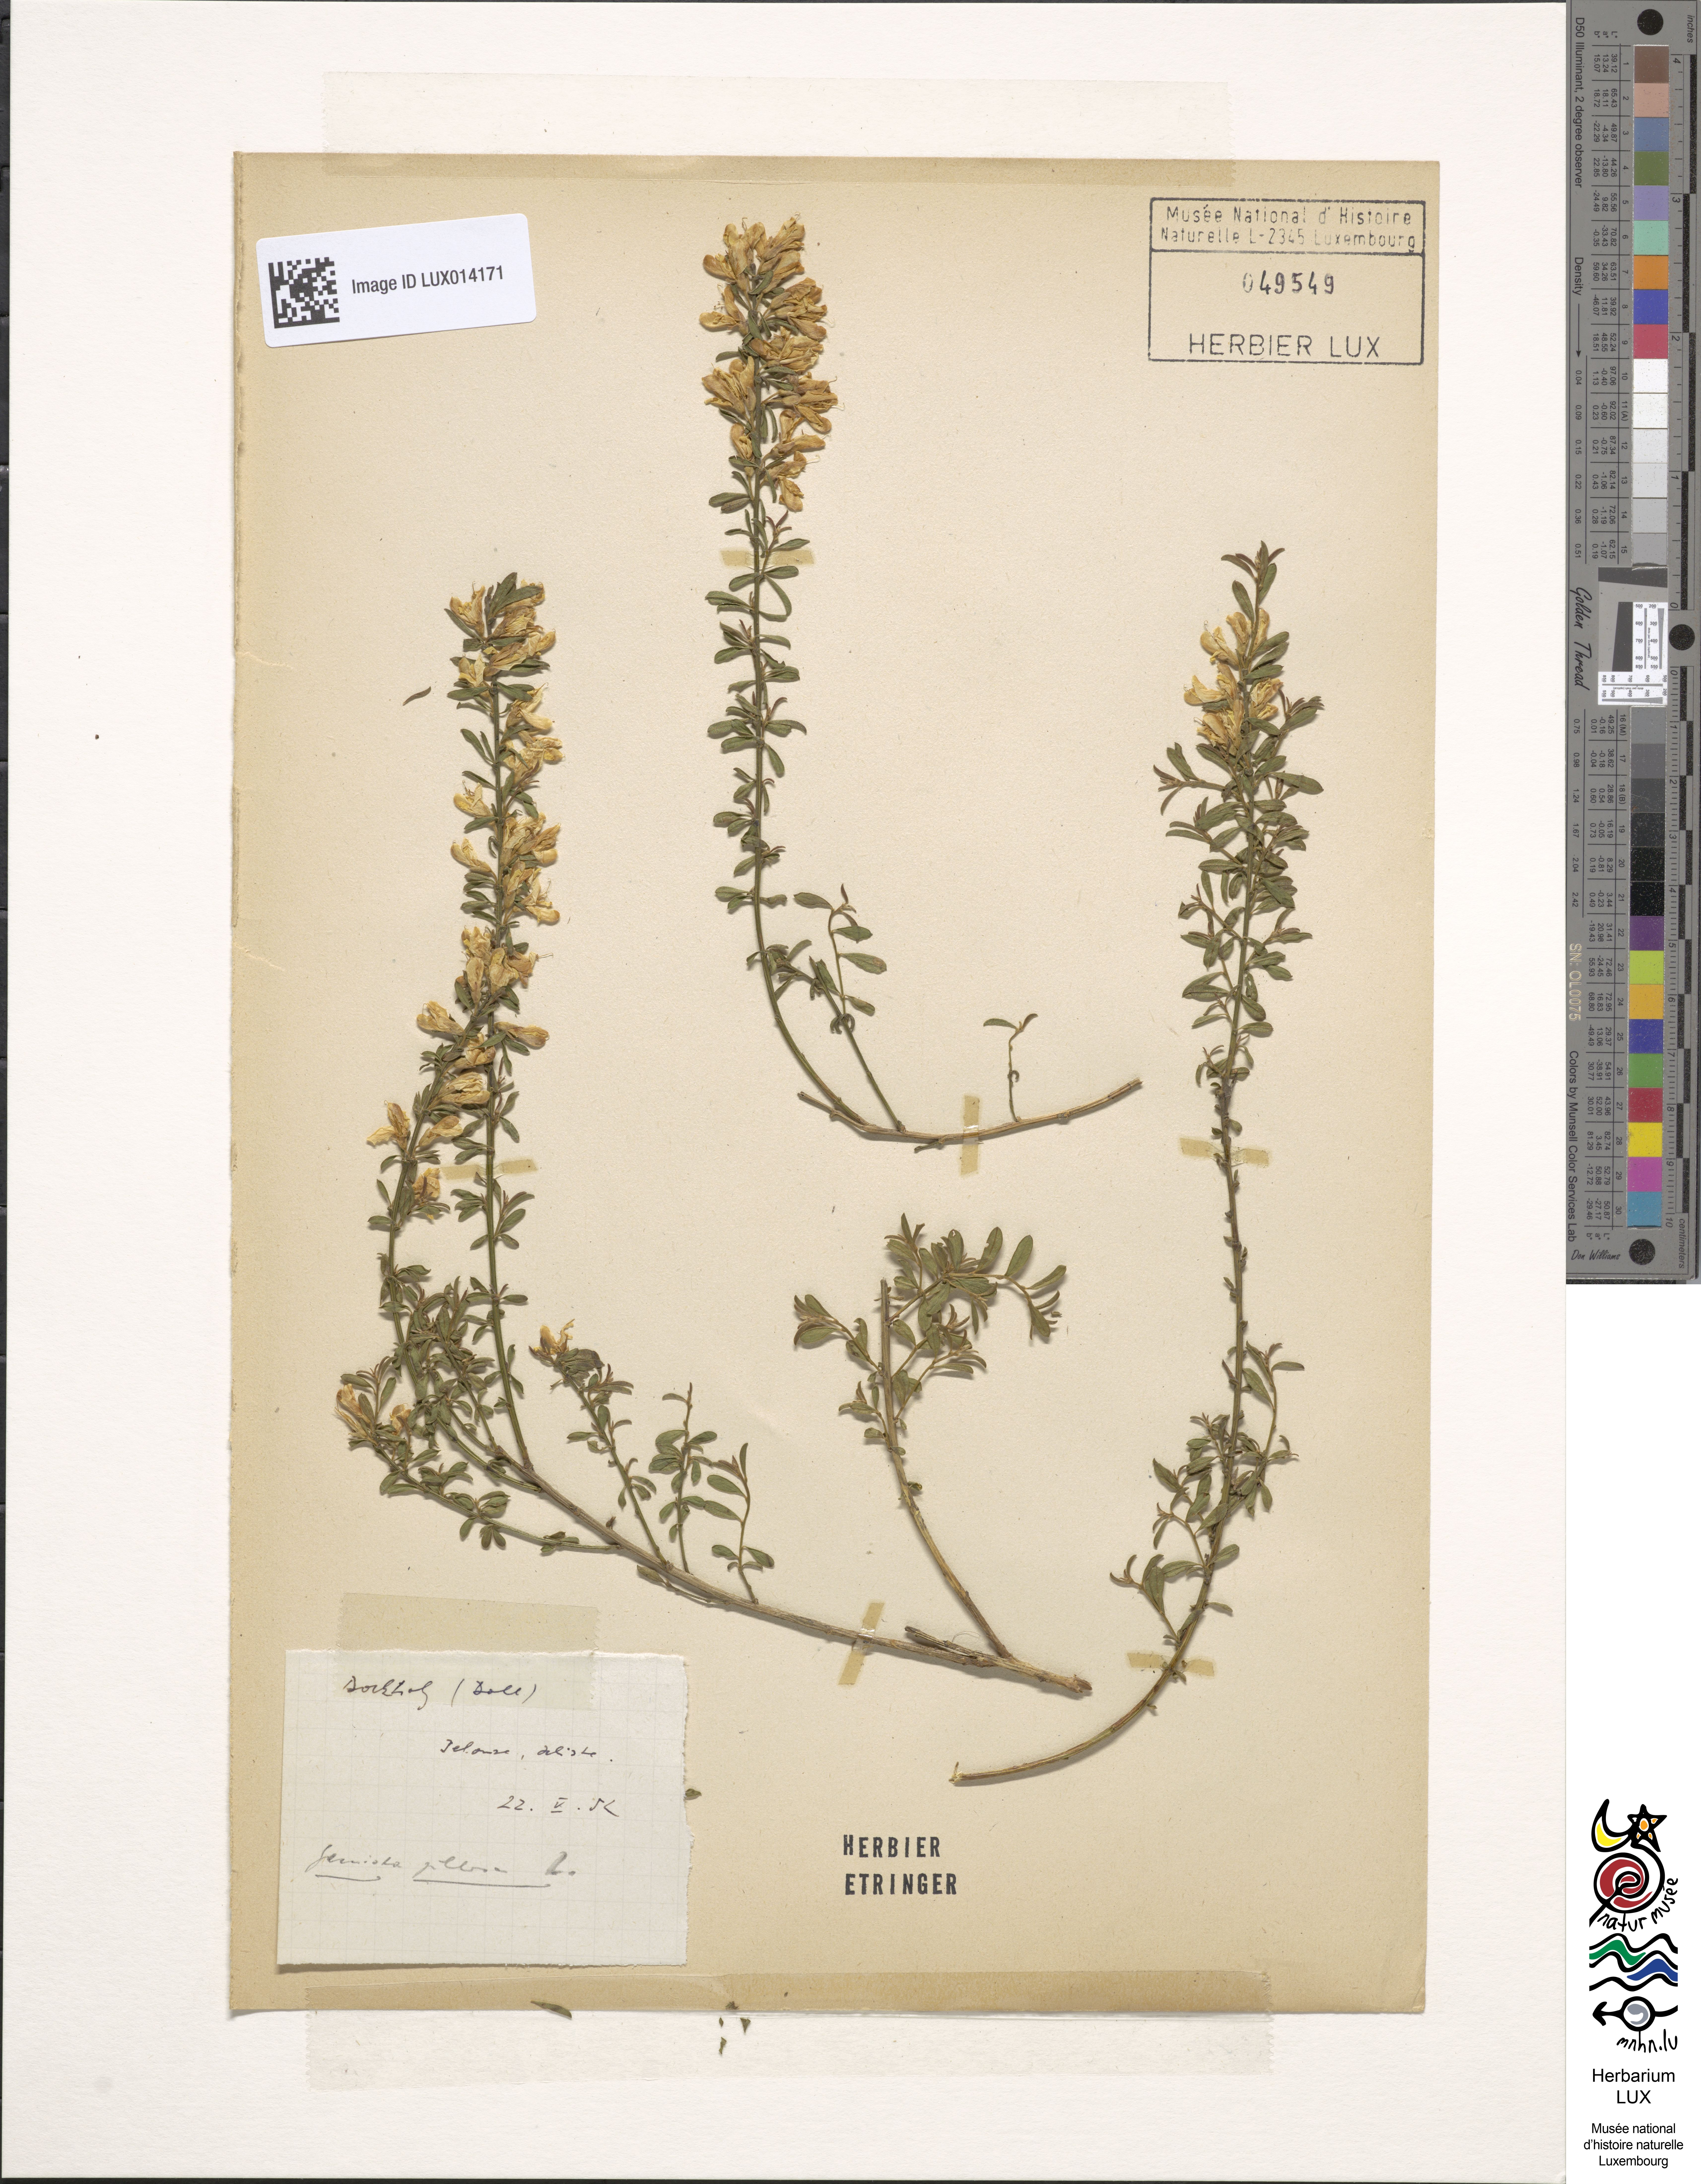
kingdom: Plantae
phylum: Tracheophyta
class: Magnoliopsida
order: Fabales
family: Fabaceae
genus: Genista
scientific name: Genista pilosa
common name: Hairy greenweed
